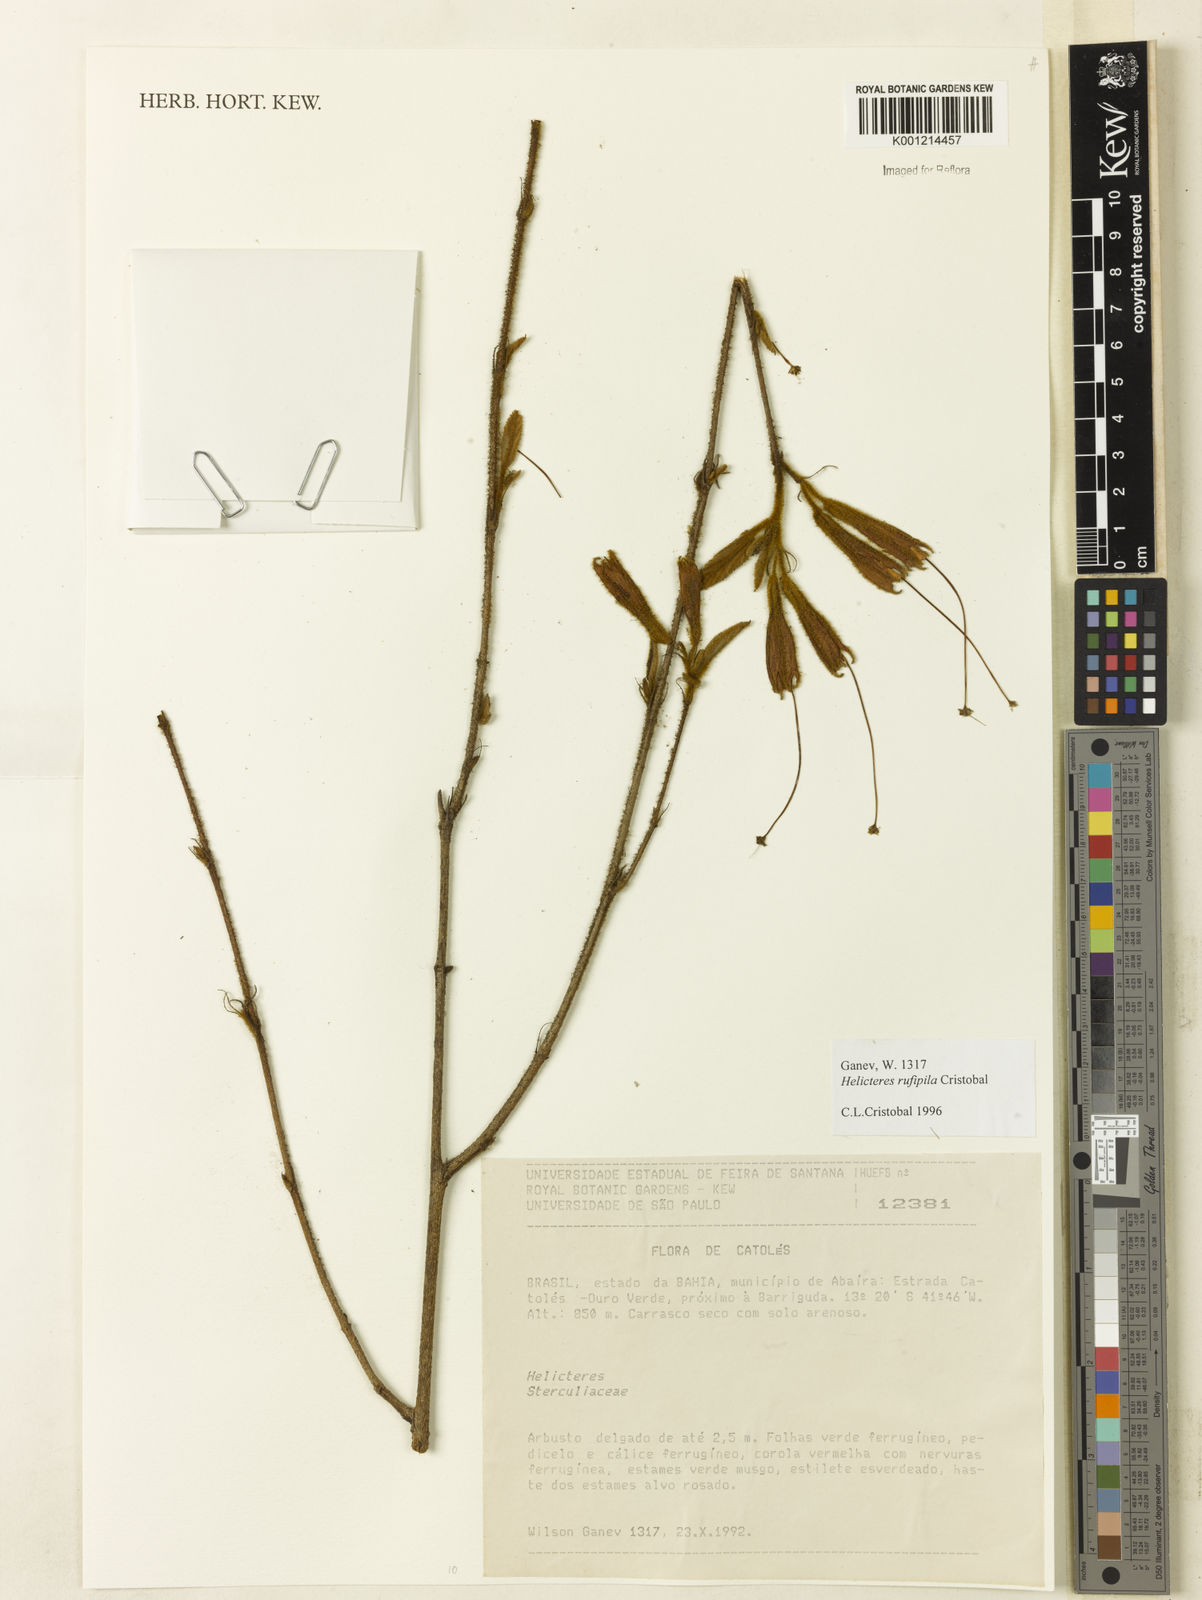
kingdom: Plantae
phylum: Tracheophyta
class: Magnoliopsida
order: Malvales
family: Malvaceae
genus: Helicteres
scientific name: Helicteres
